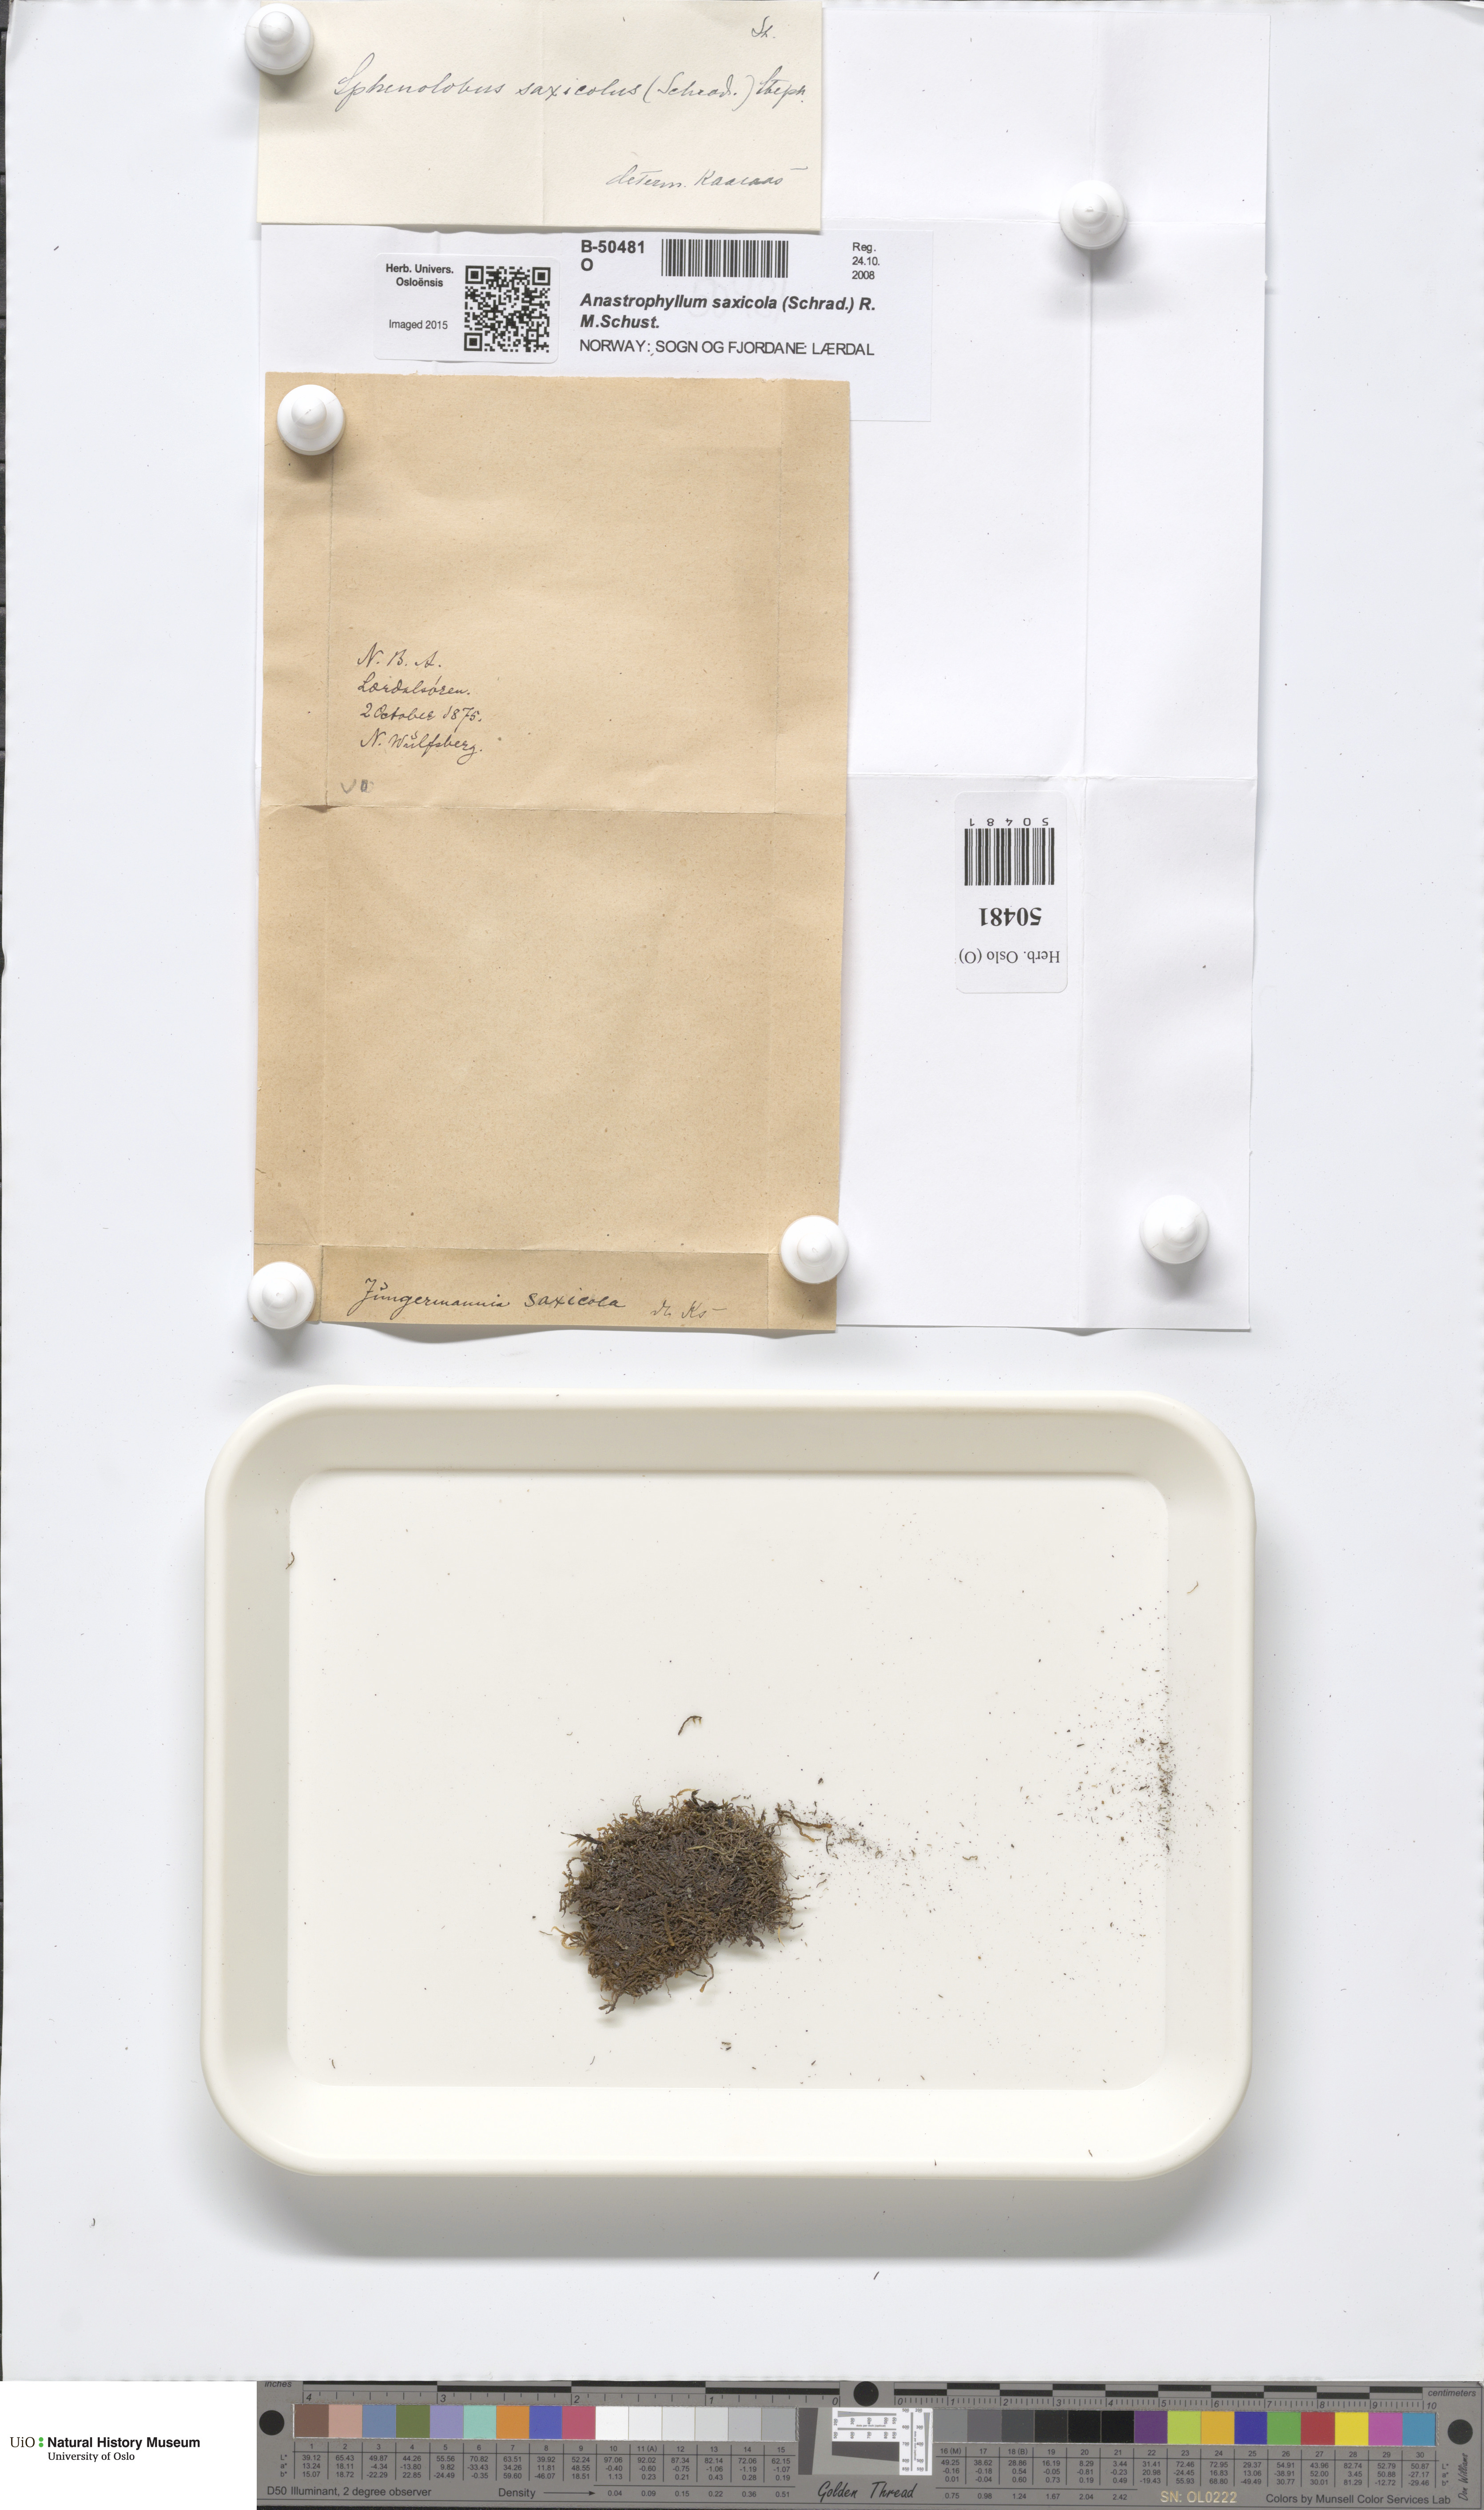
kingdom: Plantae
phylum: Marchantiophyta
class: Jungermanniopsida
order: Jungermanniales
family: Anastrophyllaceae
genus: Sphenolobus
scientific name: Sphenolobus saxicola
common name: Curled notchwort
